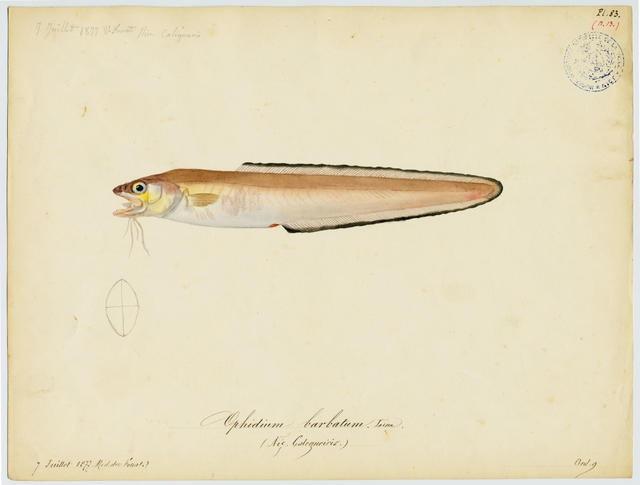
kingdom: Animalia
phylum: Chordata
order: Ophidiiformes
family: Ophidiidae
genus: Parophidion
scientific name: Parophidion vassali
